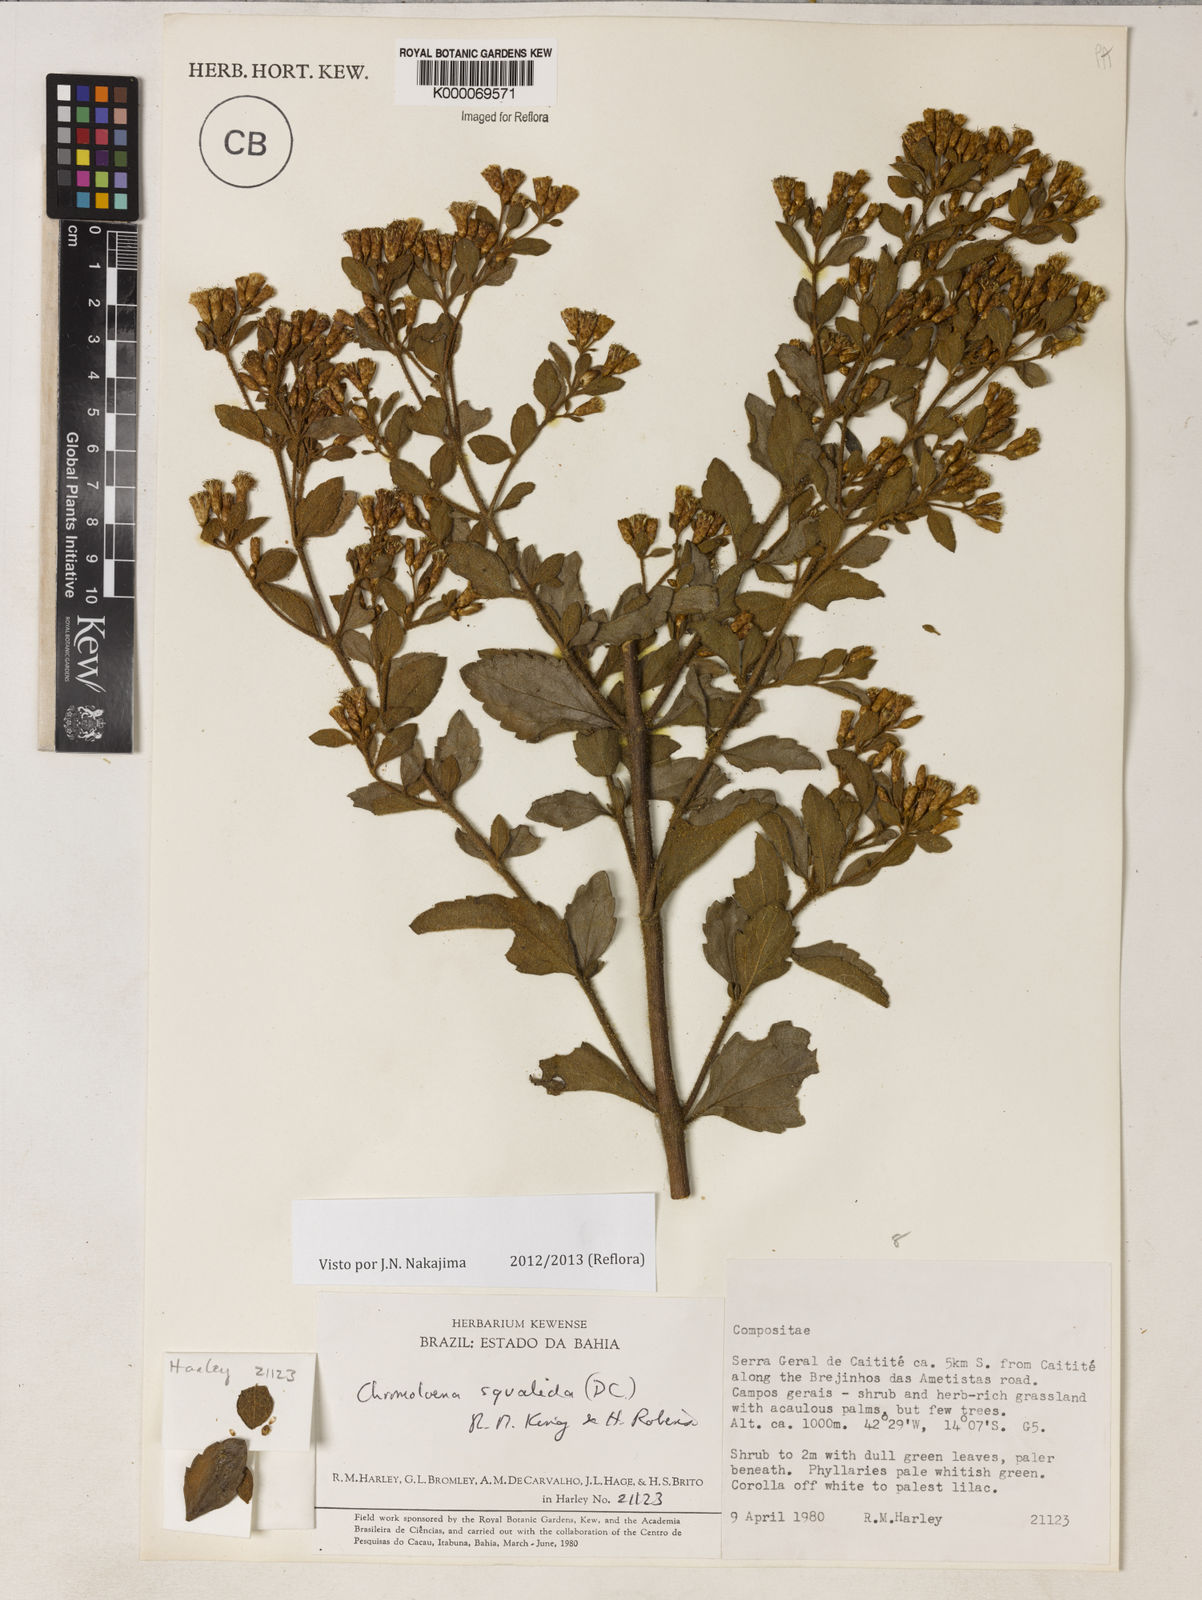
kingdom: Plantae
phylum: Tracheophyta
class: Magnoliopsida
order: Asterales
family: Asteraceae
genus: Chromolaena
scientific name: Chromolaena squalida
